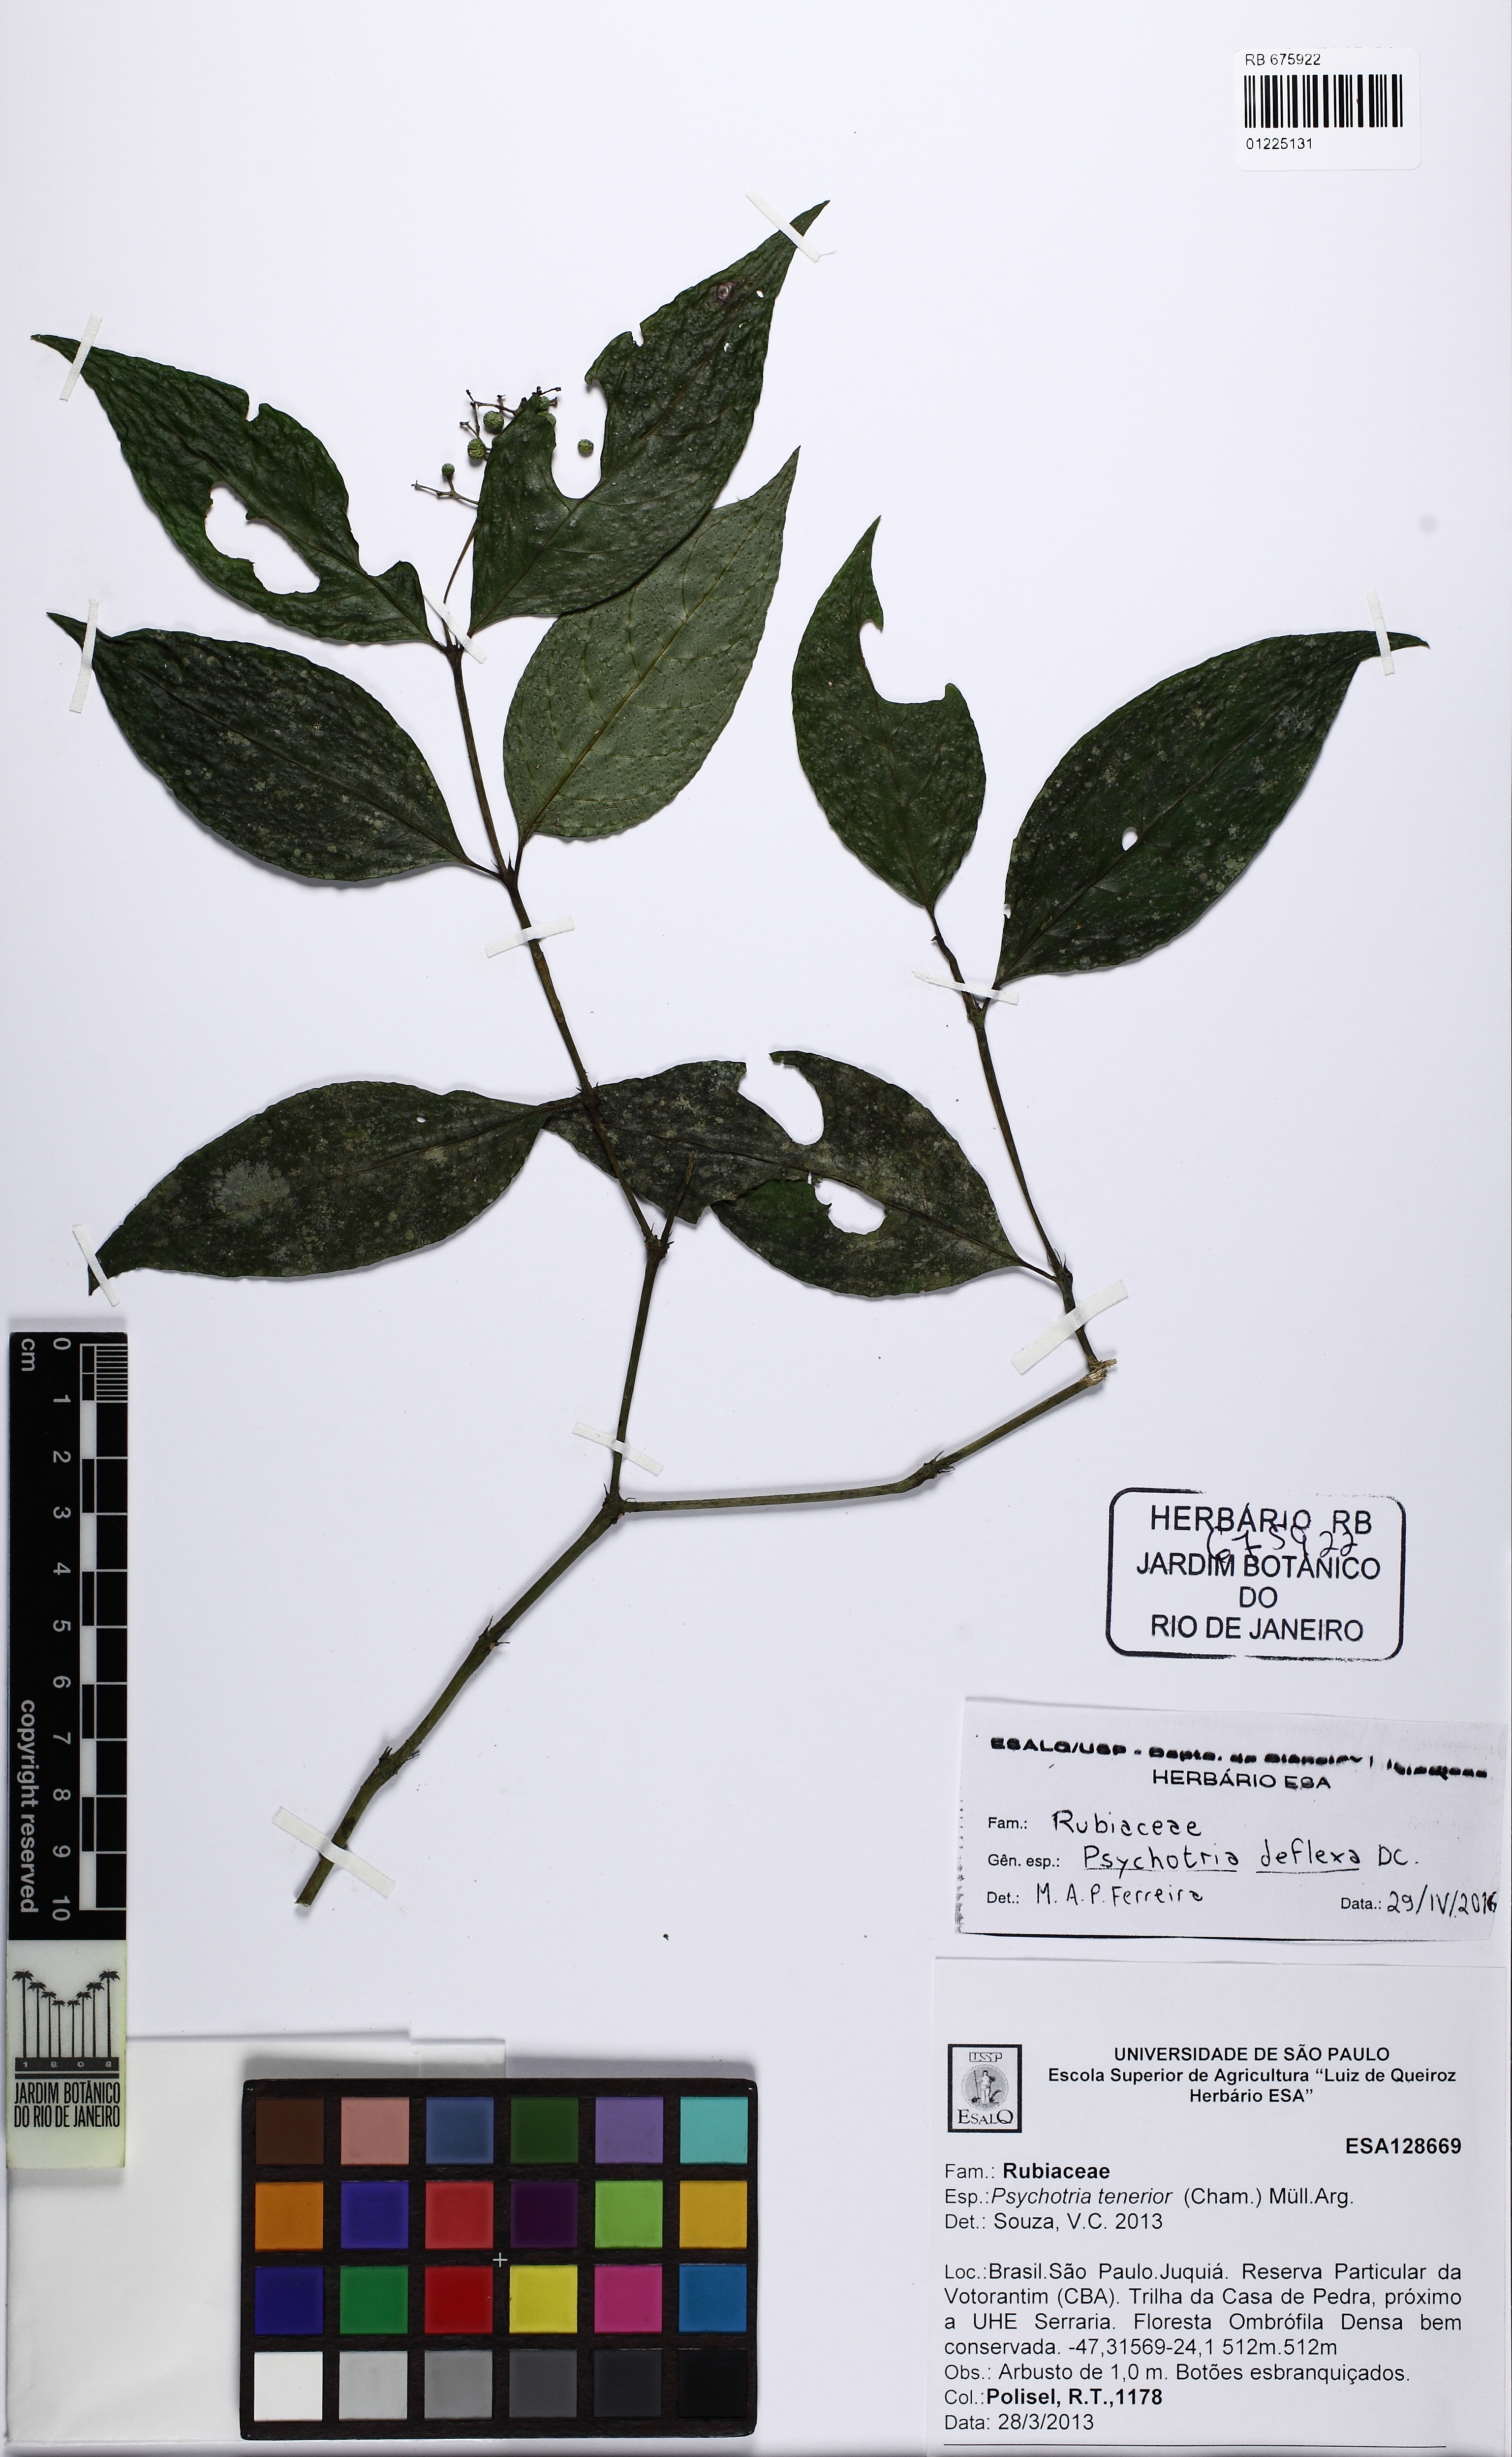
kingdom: Plantae
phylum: Tracheophyta
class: Magnoliopsida
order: Gentianales
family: Rubiaceae
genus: Palicourea
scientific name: Palicourea deflexa
